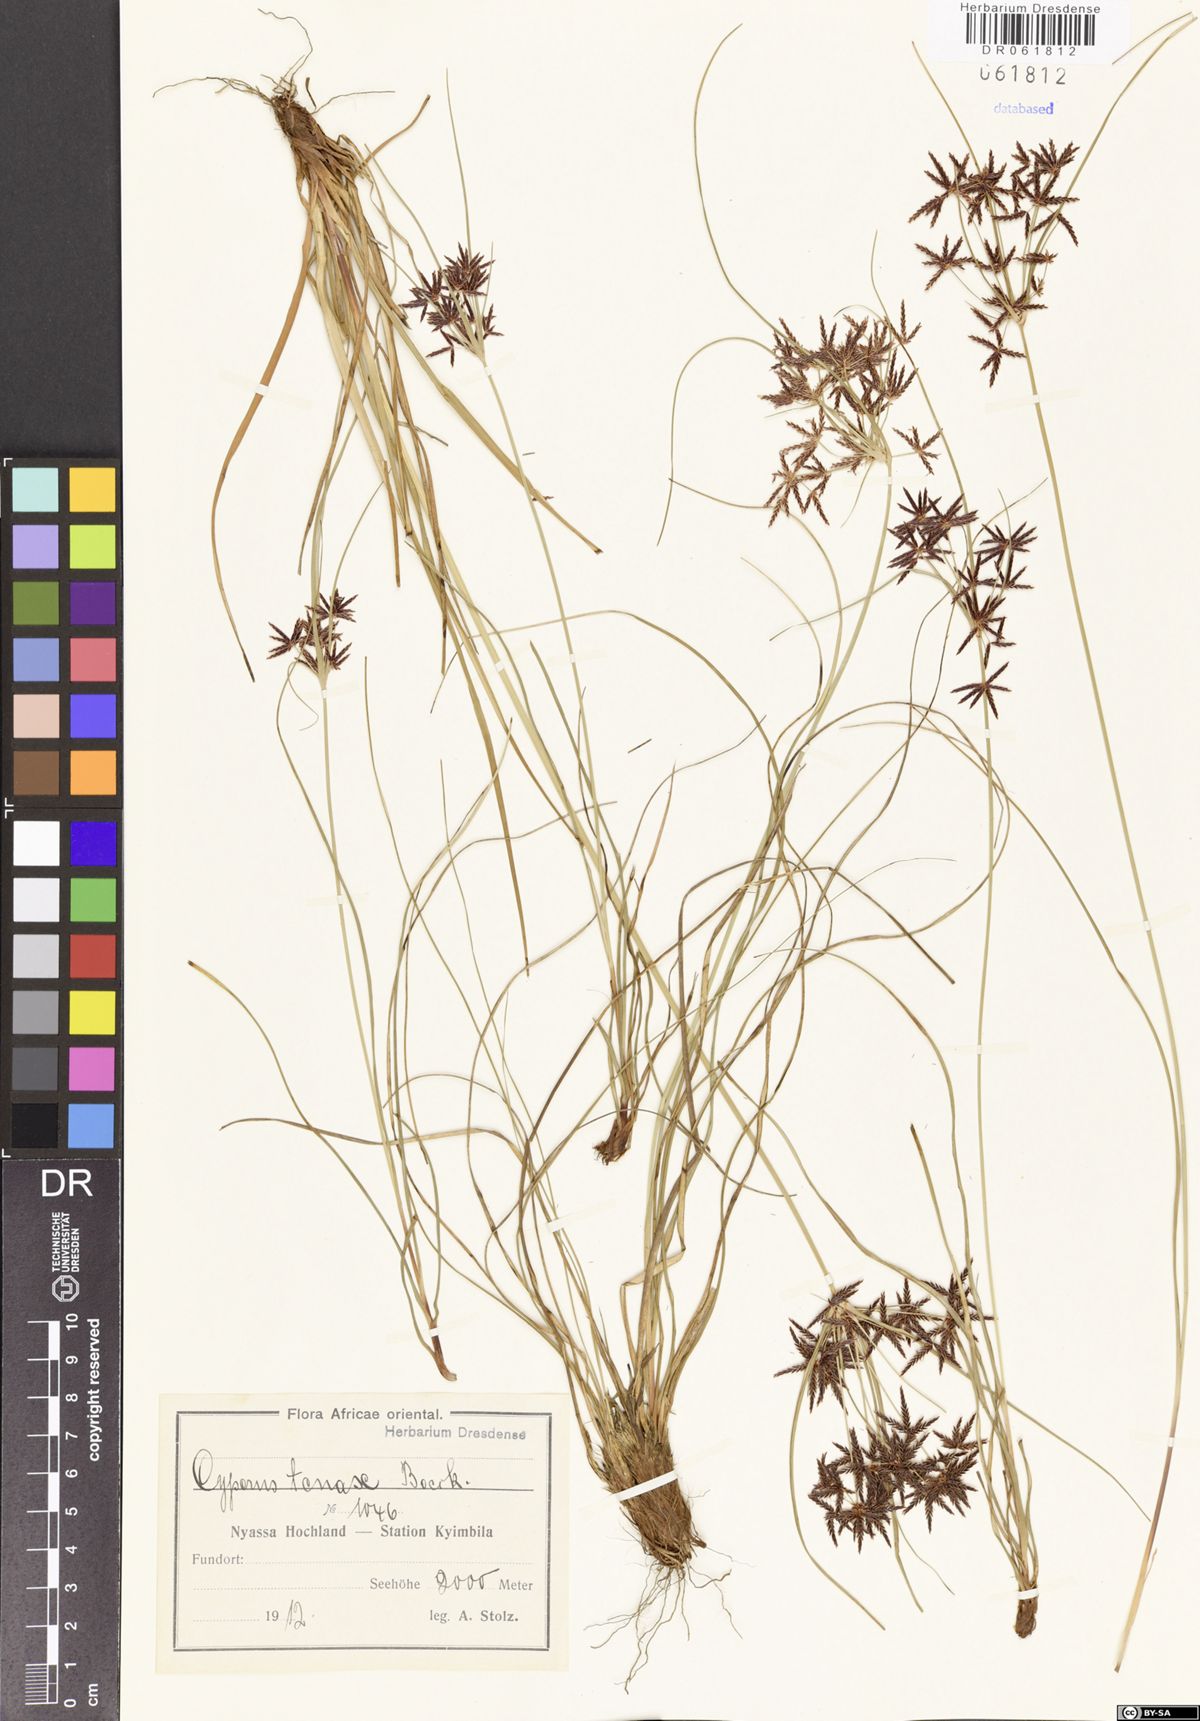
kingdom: Plantae
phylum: Tracheophyta
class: Liliopsida
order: Poales
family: Cyperaceae
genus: Cyperus
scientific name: Cyperus tenax
